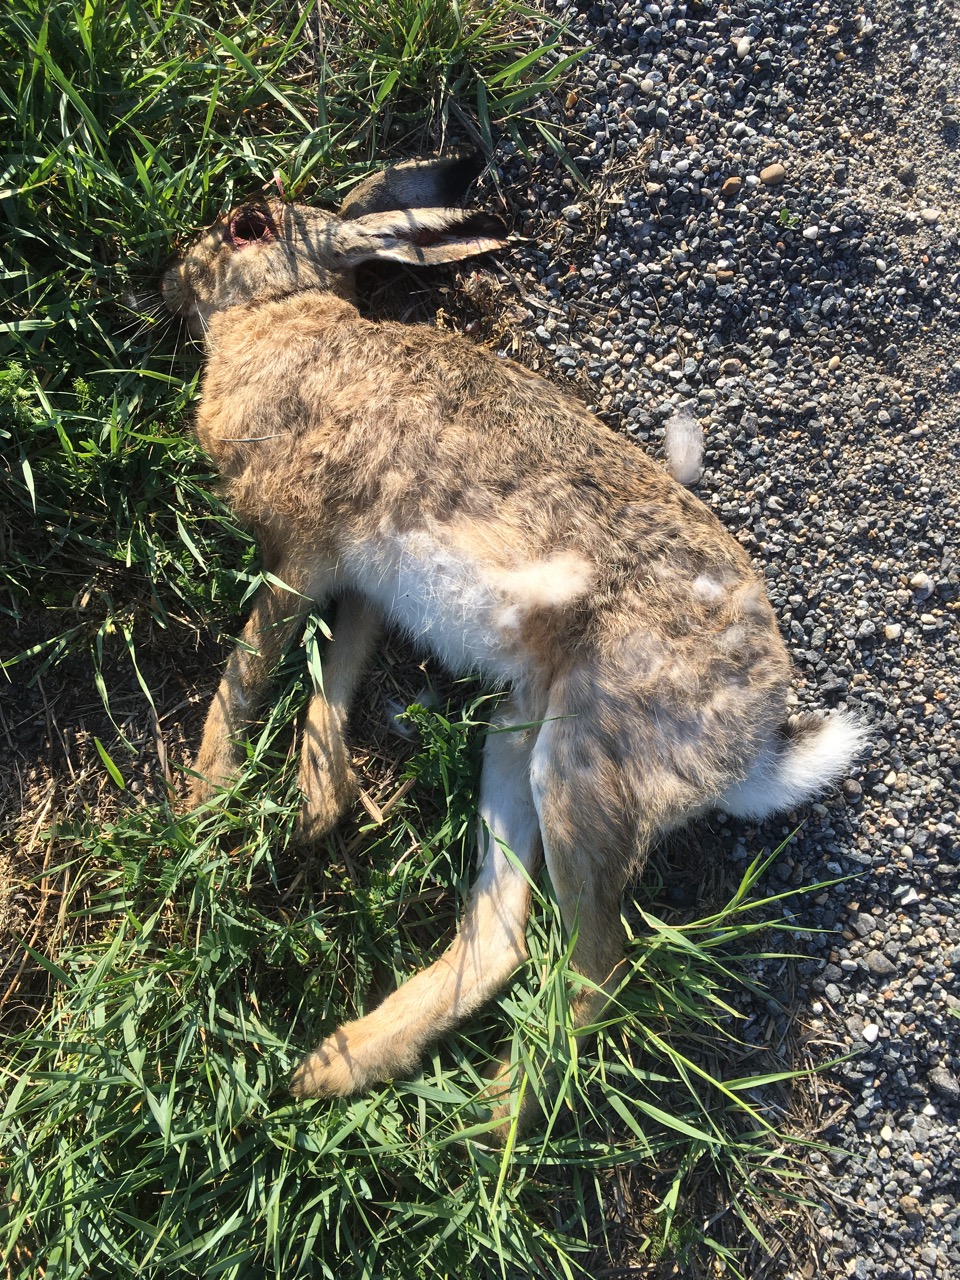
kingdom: Animalia
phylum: Chordata
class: Mammalia
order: Lagomorpha
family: Leporidae
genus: Lepus
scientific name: Lepus europaeus
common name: European hare
